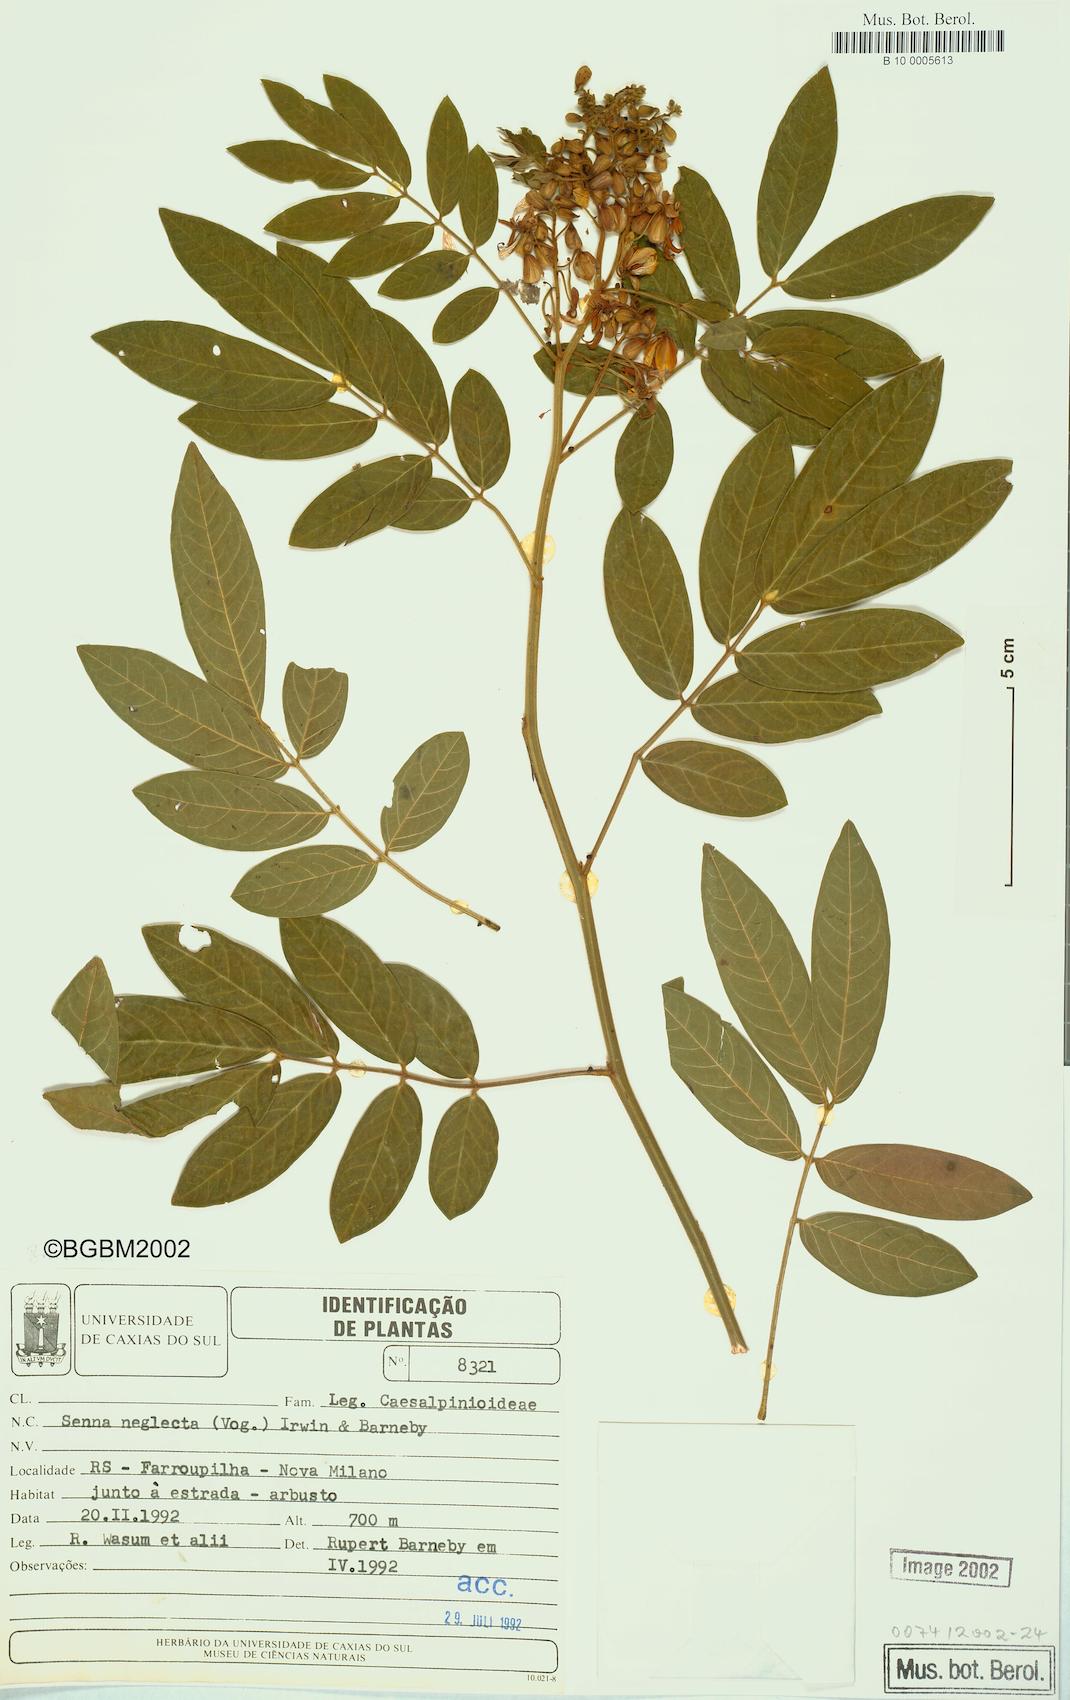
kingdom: Plantae
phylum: Tracheophyta
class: Magnoliopsida
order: Fabales
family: Fabaceae
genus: Senna
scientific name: Senna neglecta
